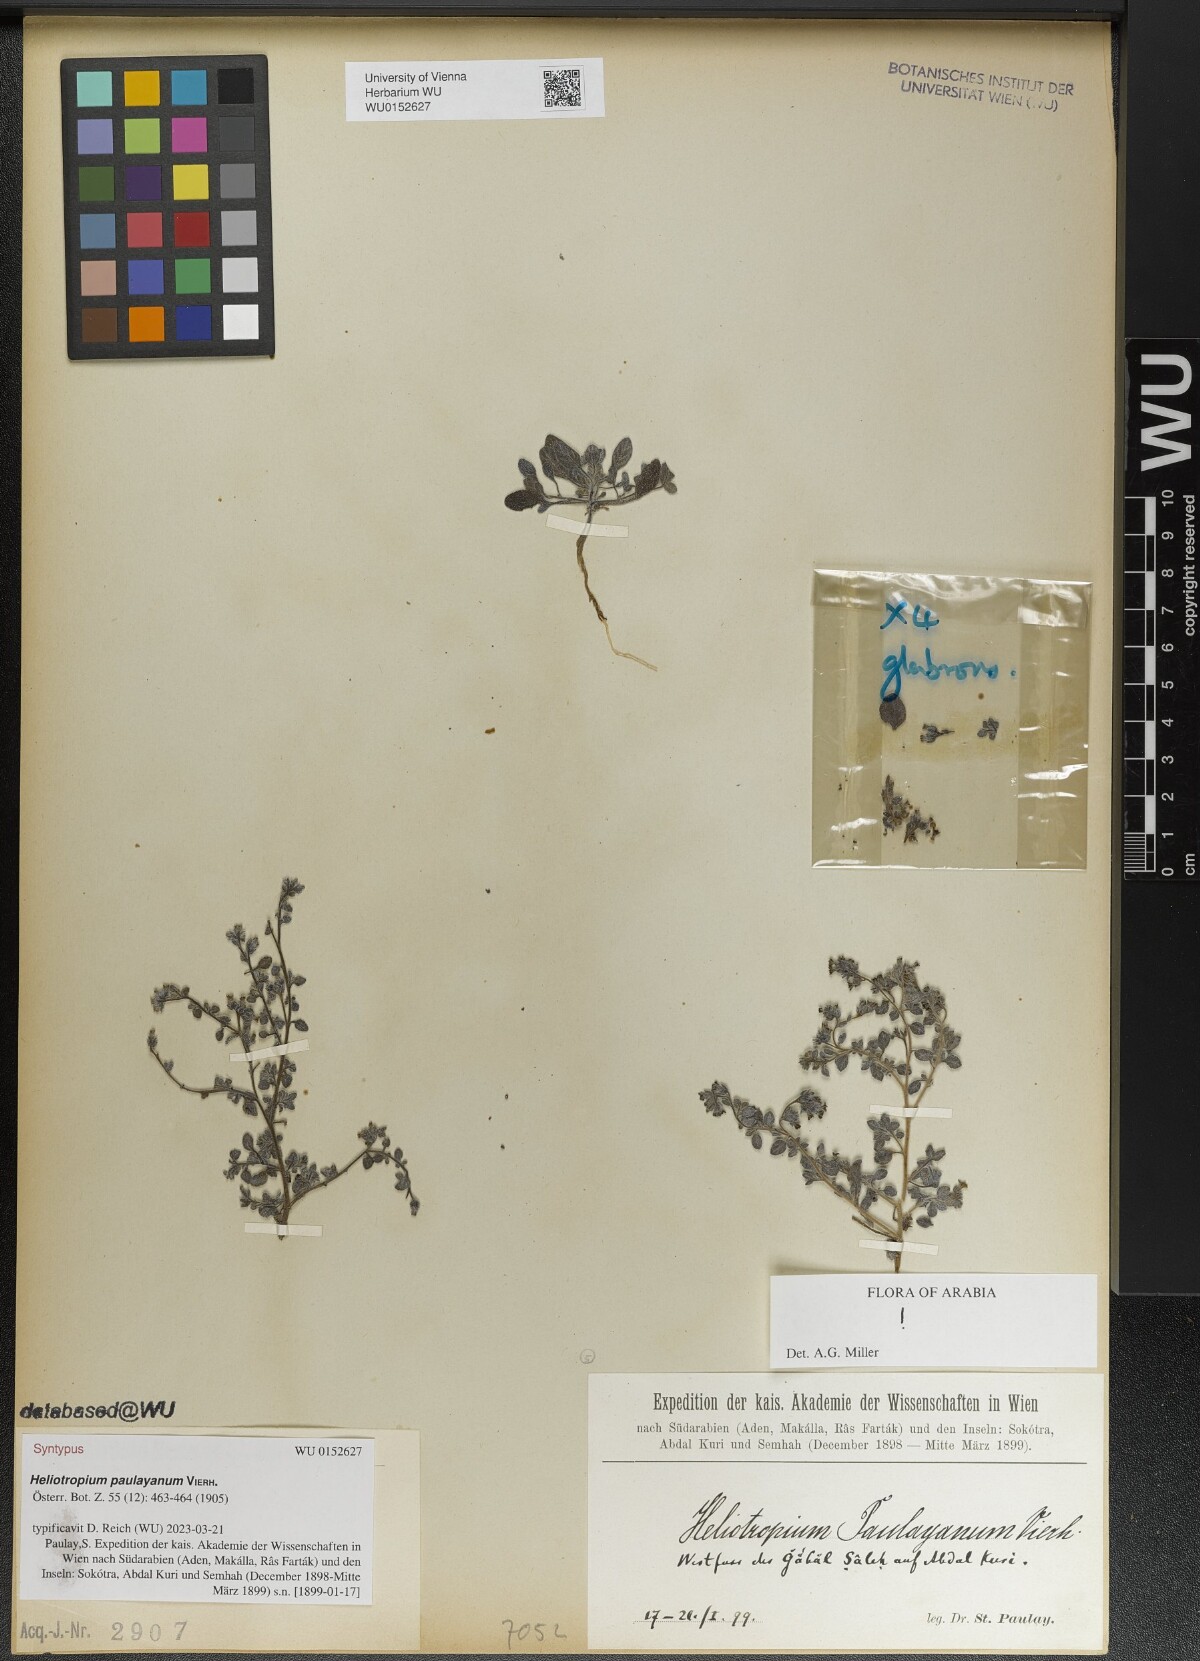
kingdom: Plantae
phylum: Tracheophyta
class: Magnoliopsida
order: Boraginales
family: Heliotropiaceae
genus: Heliotropium
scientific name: Heliotropium paulayanum
